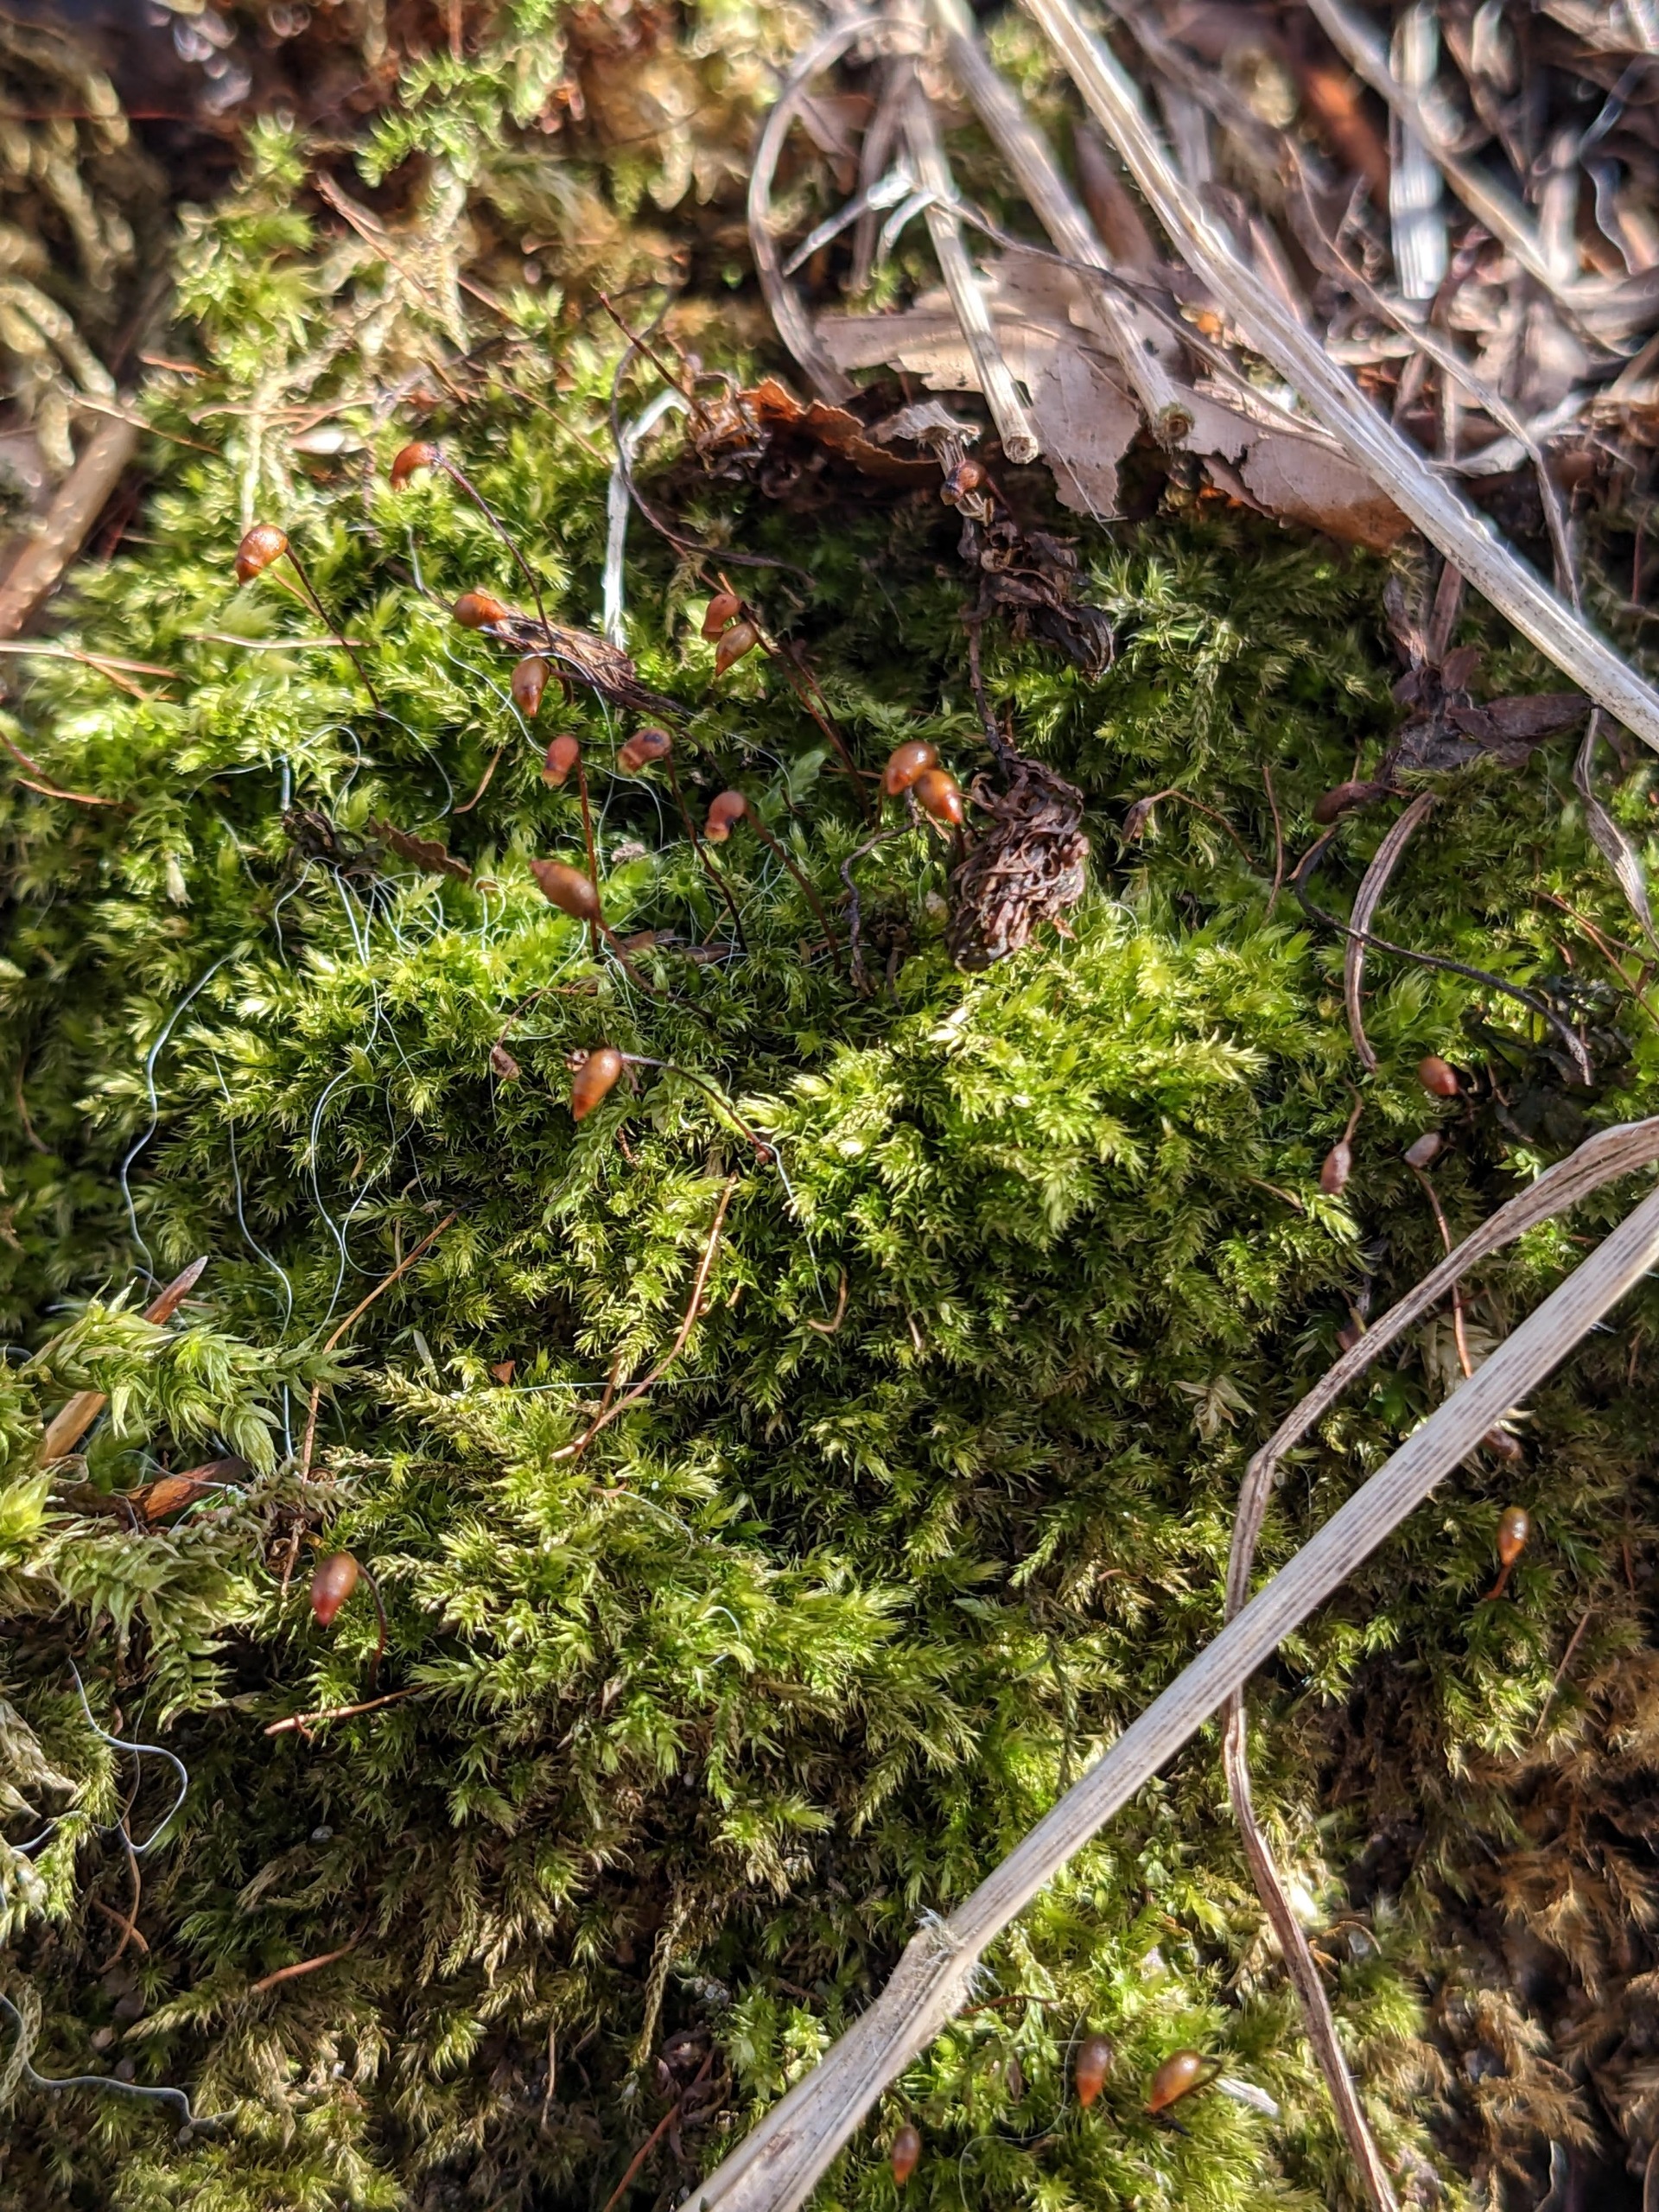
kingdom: Plantae
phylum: Bryophyta
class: Bryopsida
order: Hypnales
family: Brachytheciaceae
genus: Brachytheciastrum
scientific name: Brachytheciastrum velutinum
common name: Fløjls-kortkapsel
